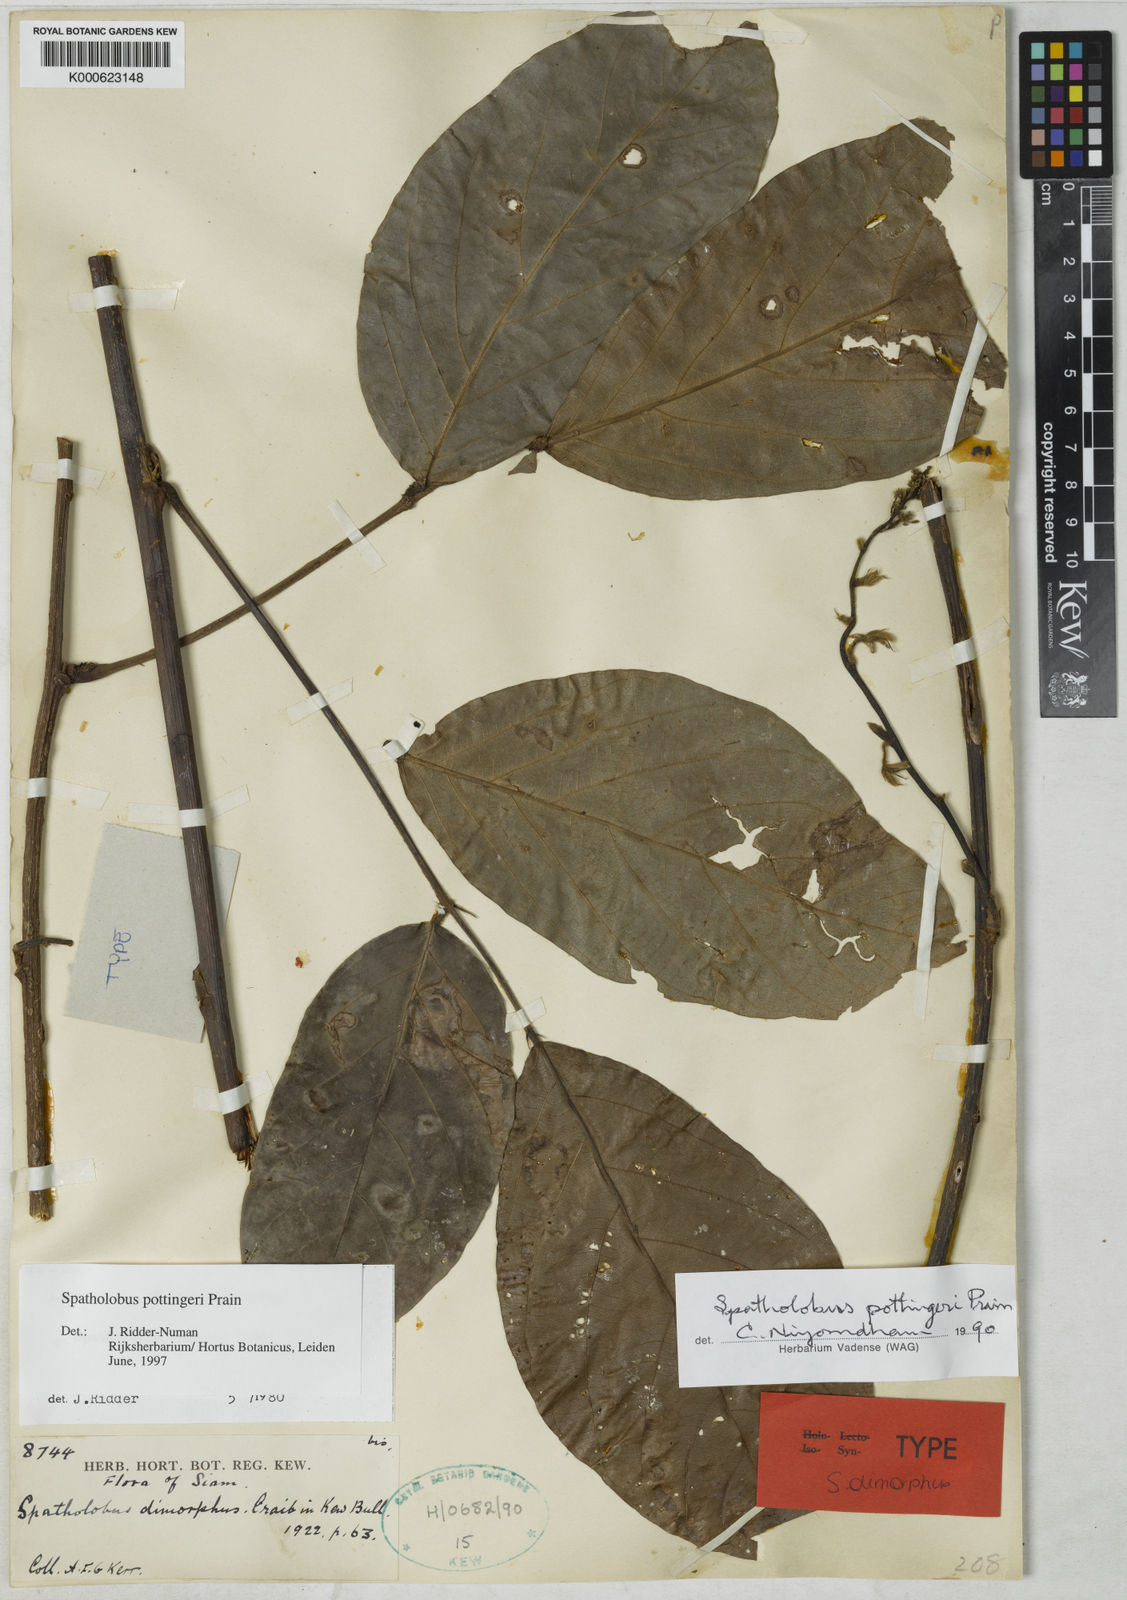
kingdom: Plantae
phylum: Tracheophyta
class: Magnoliopsida
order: Fabales
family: Fabaceae
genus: Spatholobus
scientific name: Spatholobus pottingeri
